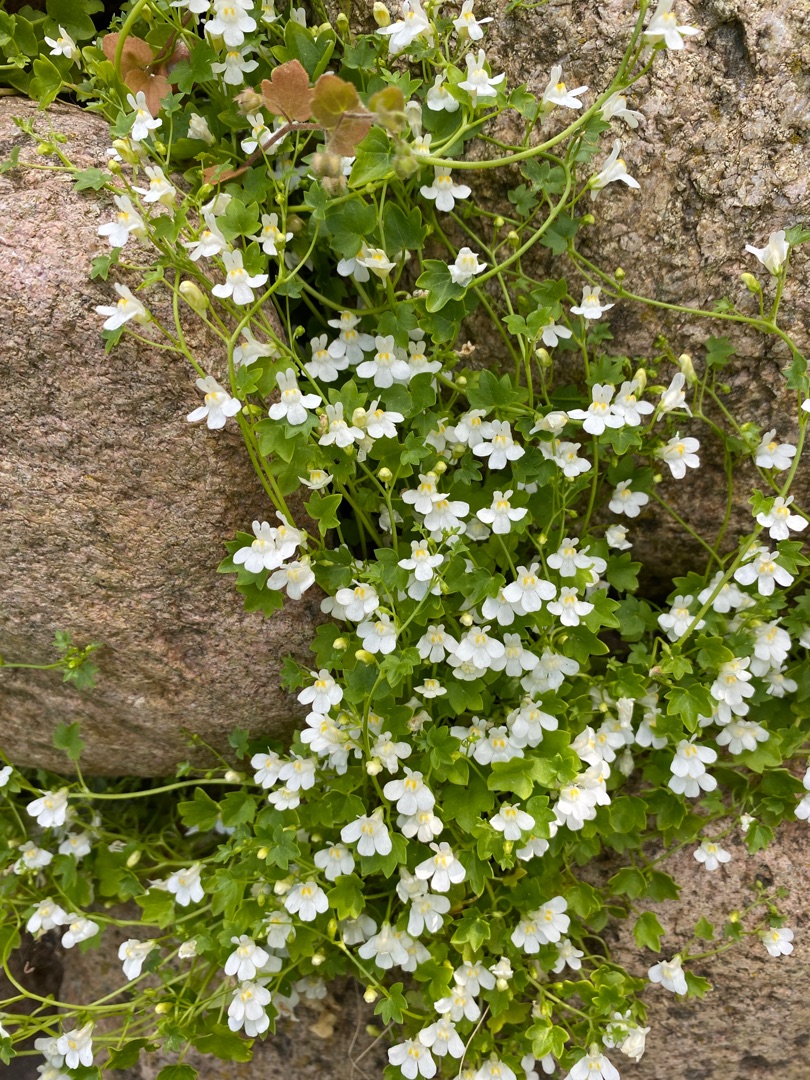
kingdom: Plantae
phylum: Tracheophyta
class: Magnoliopsida
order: Lamiales
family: Plantaginaceae
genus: Cymbalaria
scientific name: Cymbalaria muralis
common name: Vedbend-torskemund
